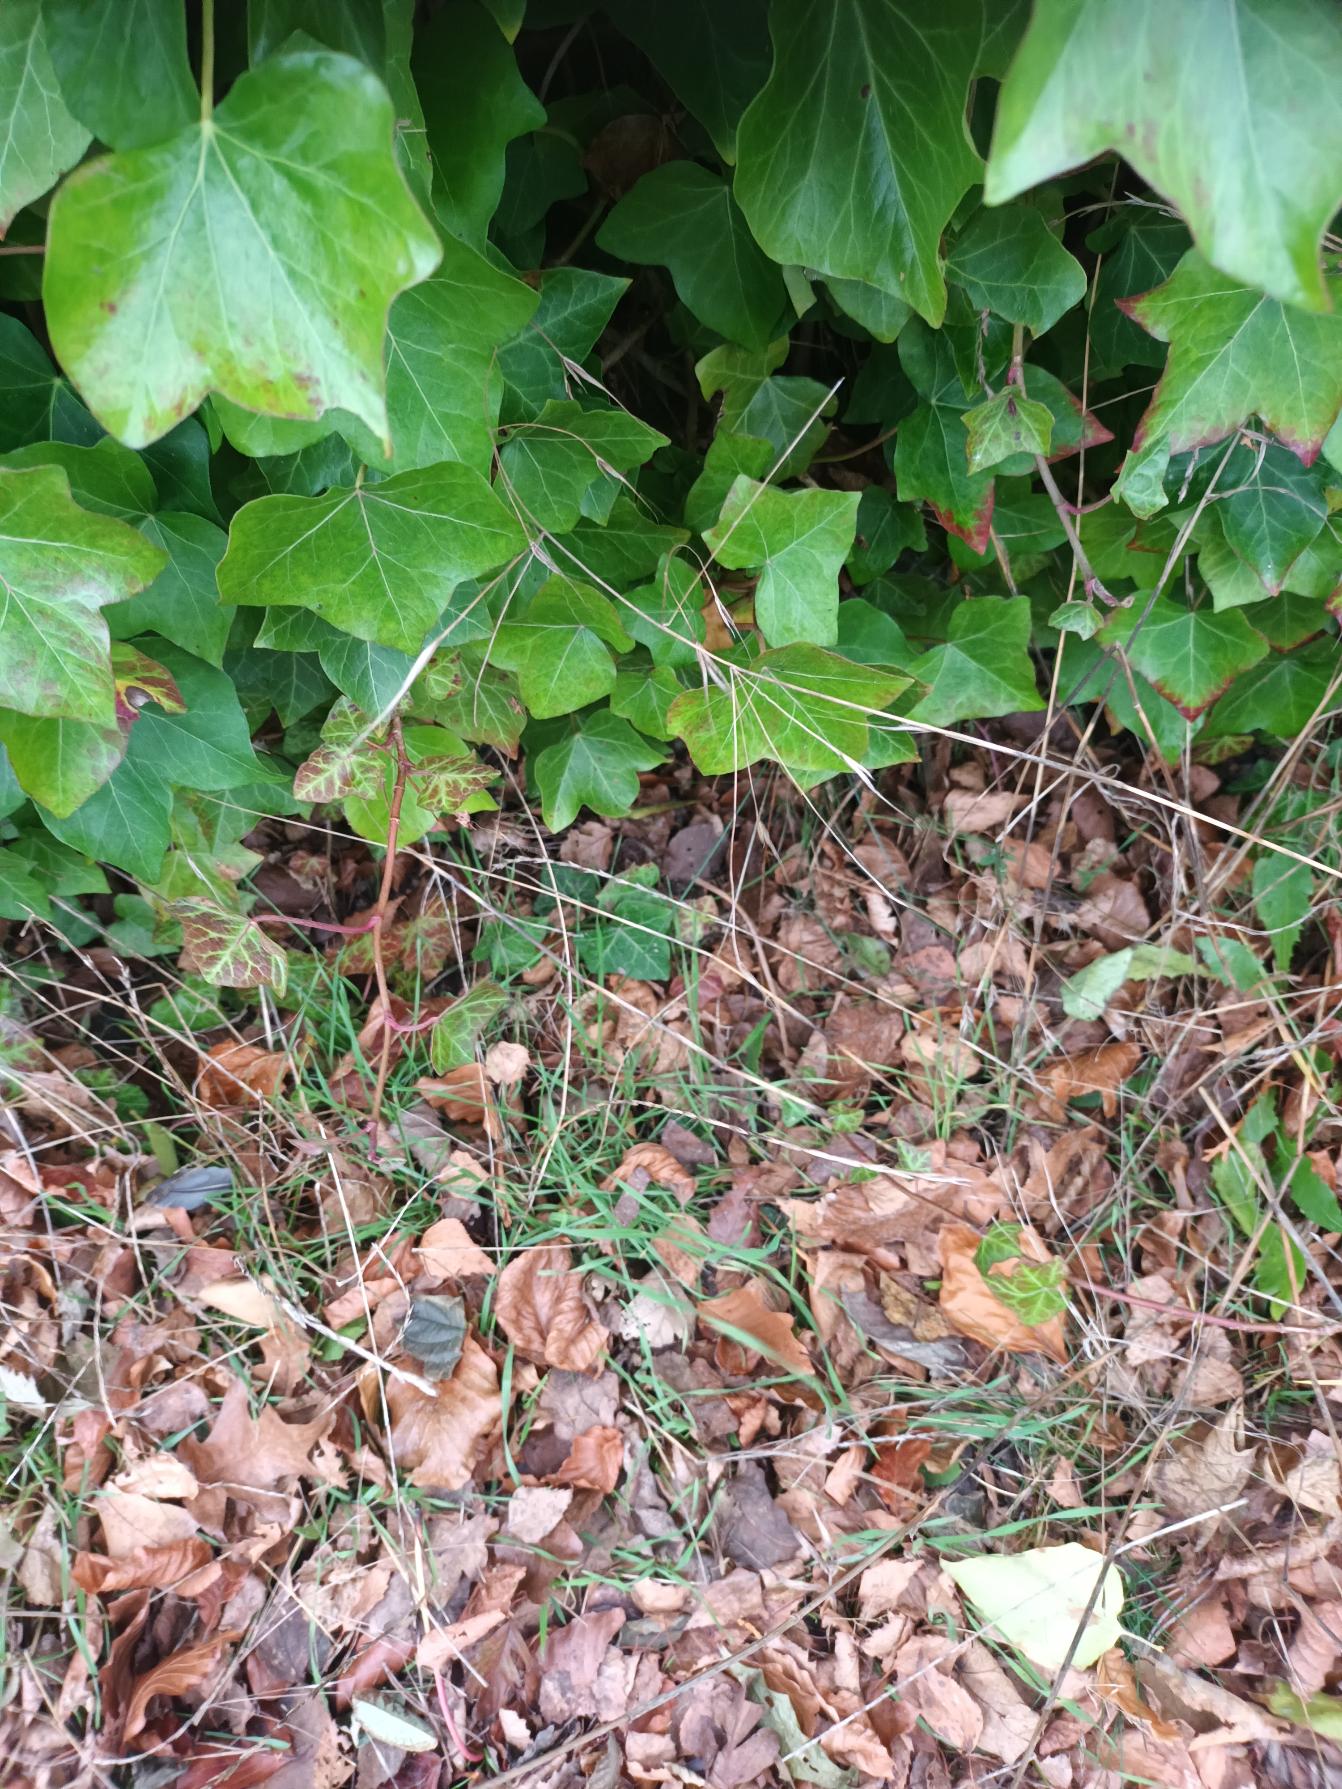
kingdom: Plantae
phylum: Tracheophyta
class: Liliopsida
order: Poales
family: Poaceae
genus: Bromus
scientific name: Bromus sterilis
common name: Gold hejre
